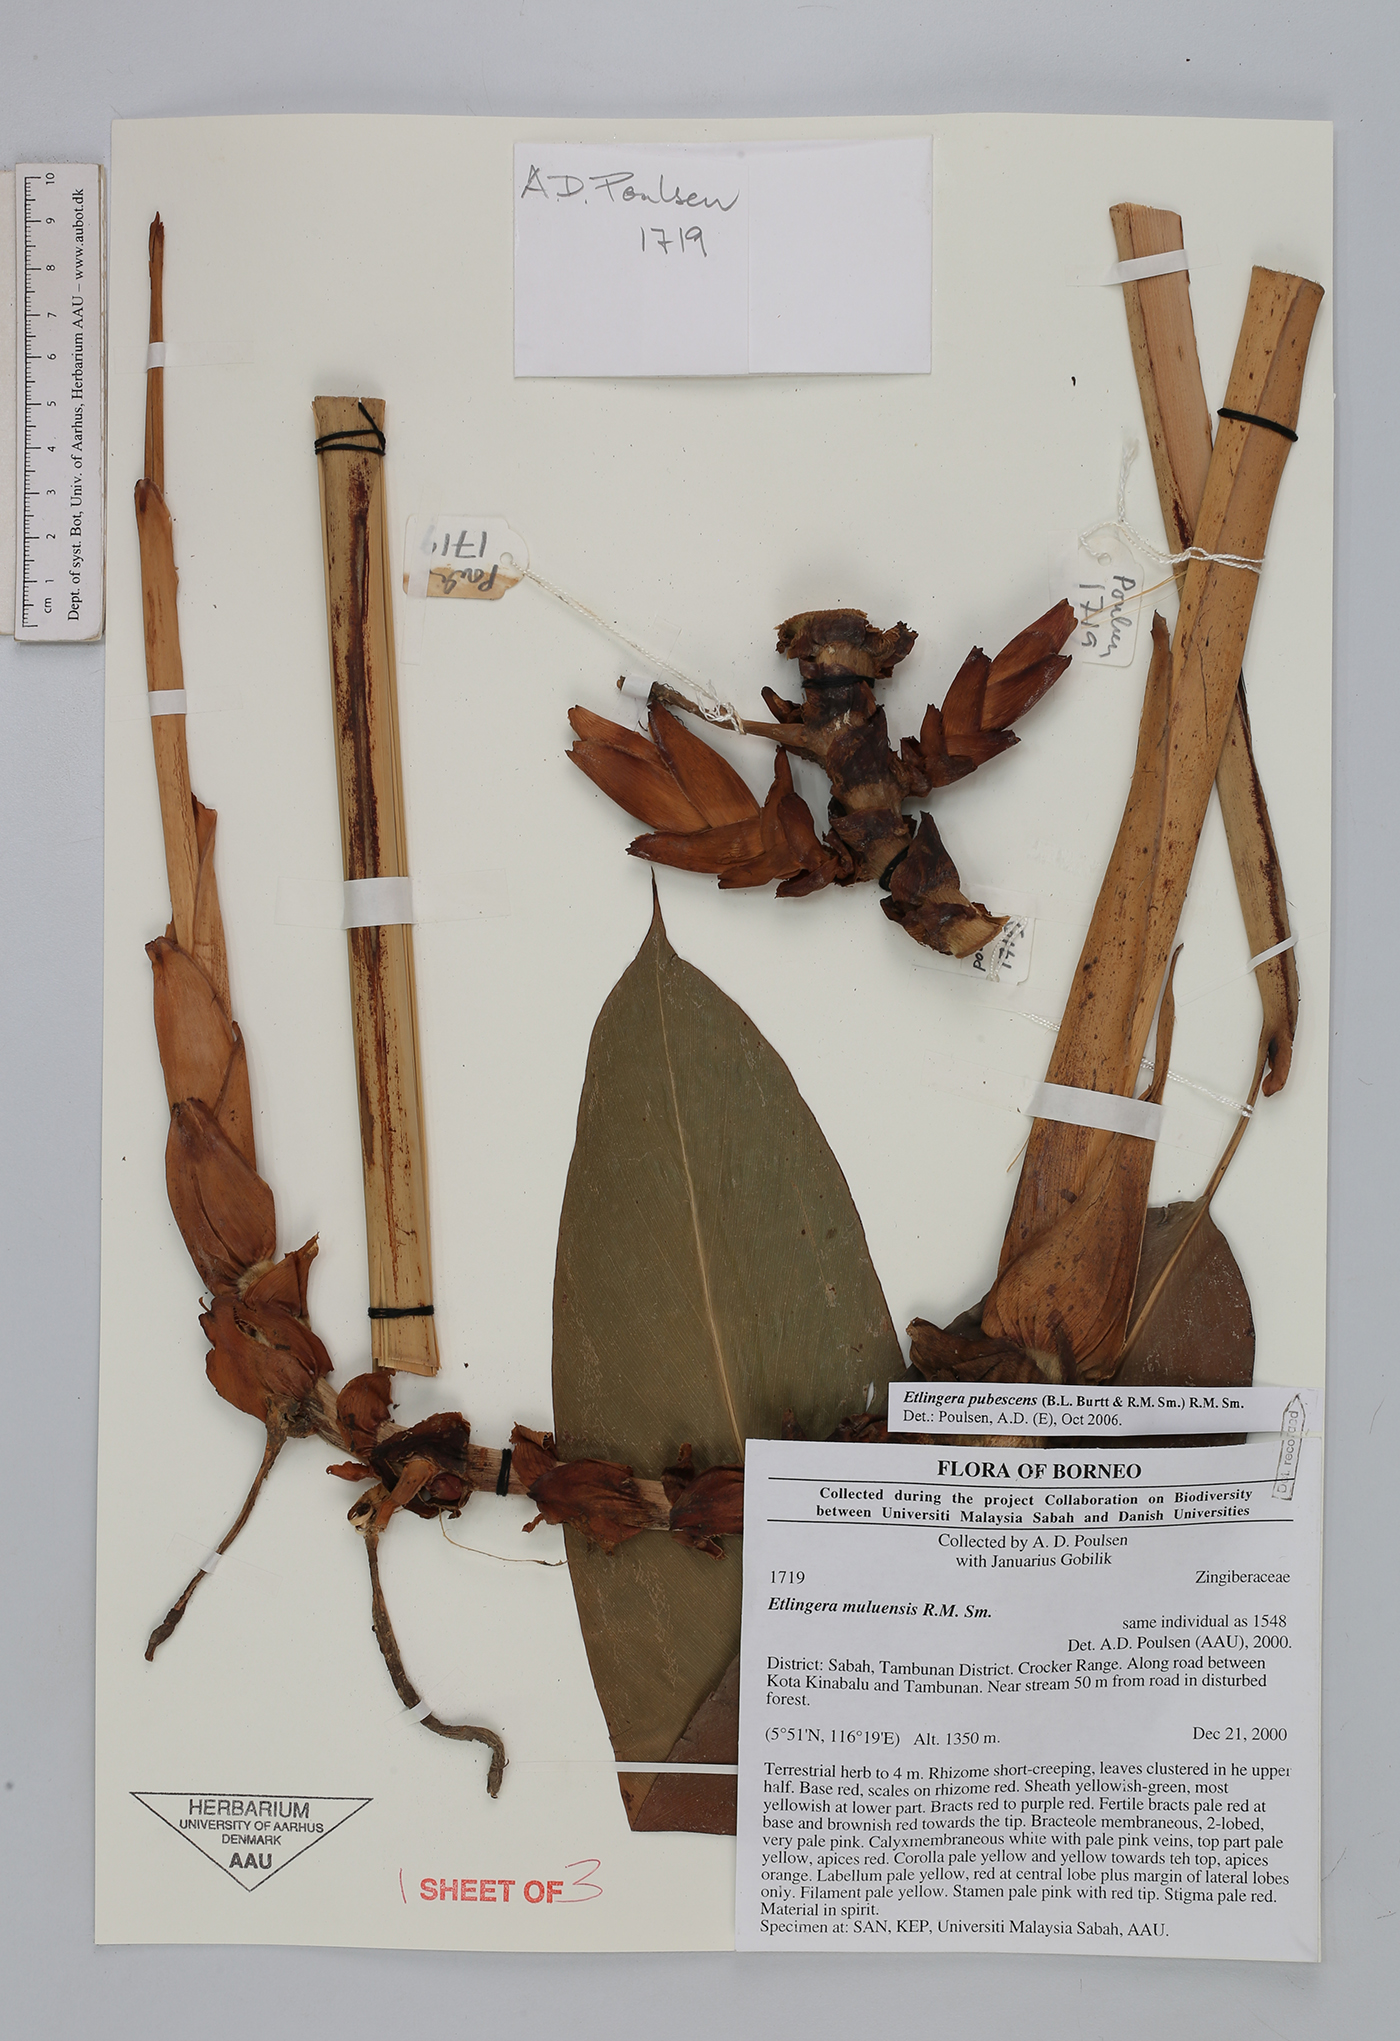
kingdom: Plantae
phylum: Tracheophyta
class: Liliopsida
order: Zingiberales
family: Zingiberaceae
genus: Etlingera
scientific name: Etlingera pubescens
